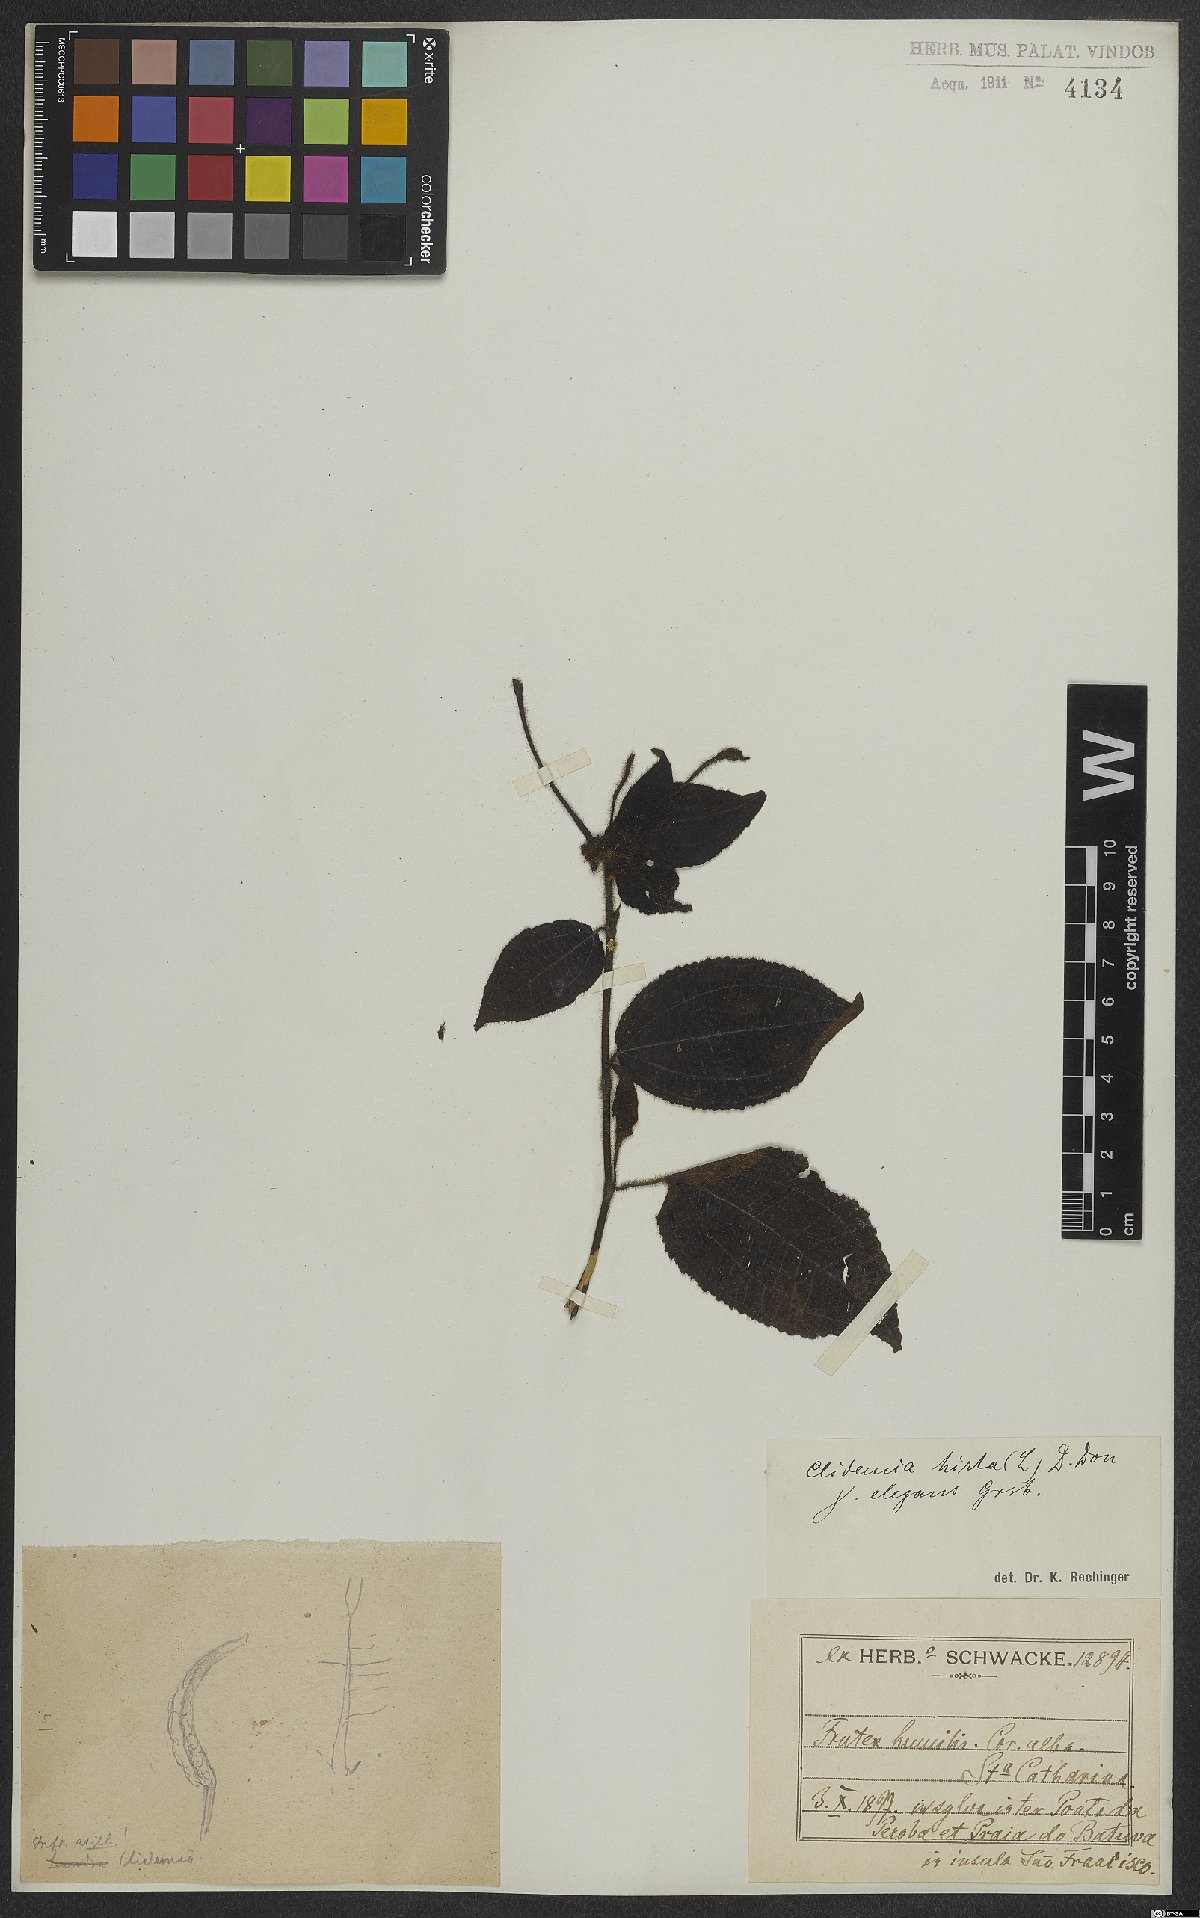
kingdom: Plantae
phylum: Tracheophyta
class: Magnoliopsida
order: Myrtales
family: Melastomataceae
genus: Miconia
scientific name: Miconia crenata
